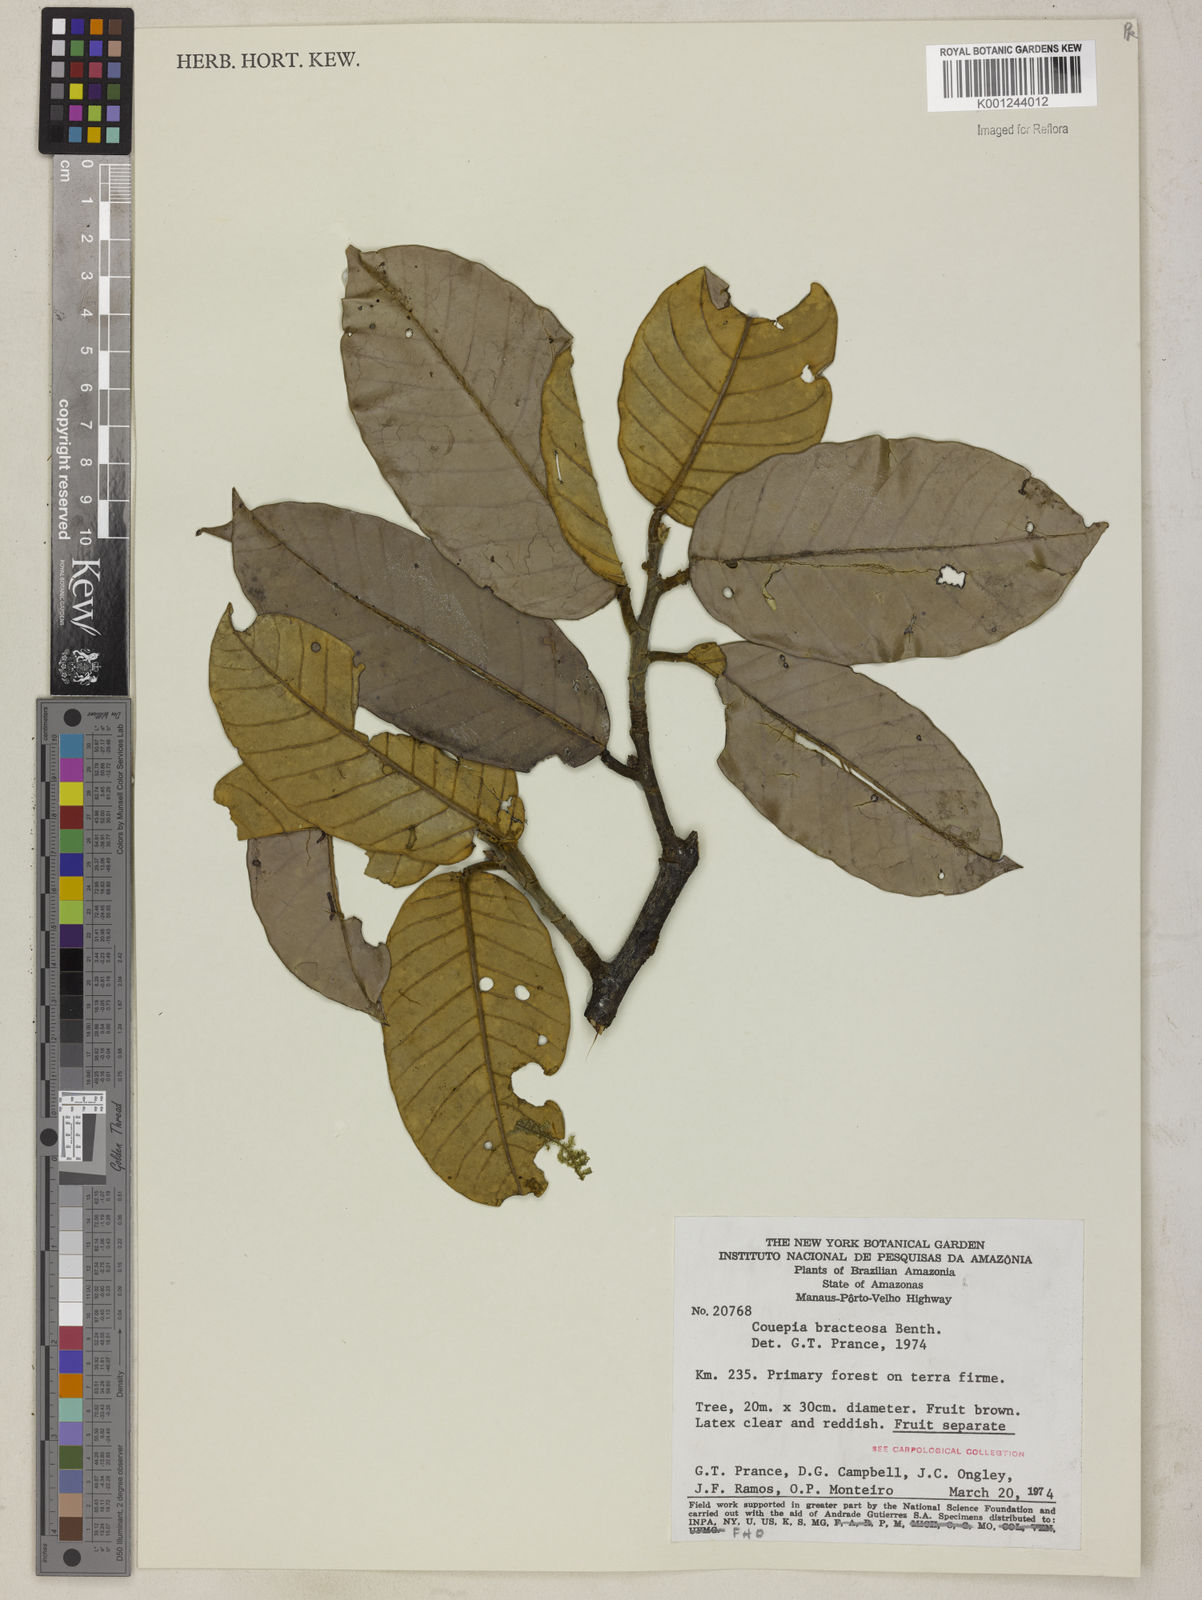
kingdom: Plantae
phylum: Tracheophyta
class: Magnoliopsida
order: Malpighiales
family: Chrysobalanaceae
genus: Couepia
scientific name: Couepia bracteosa
